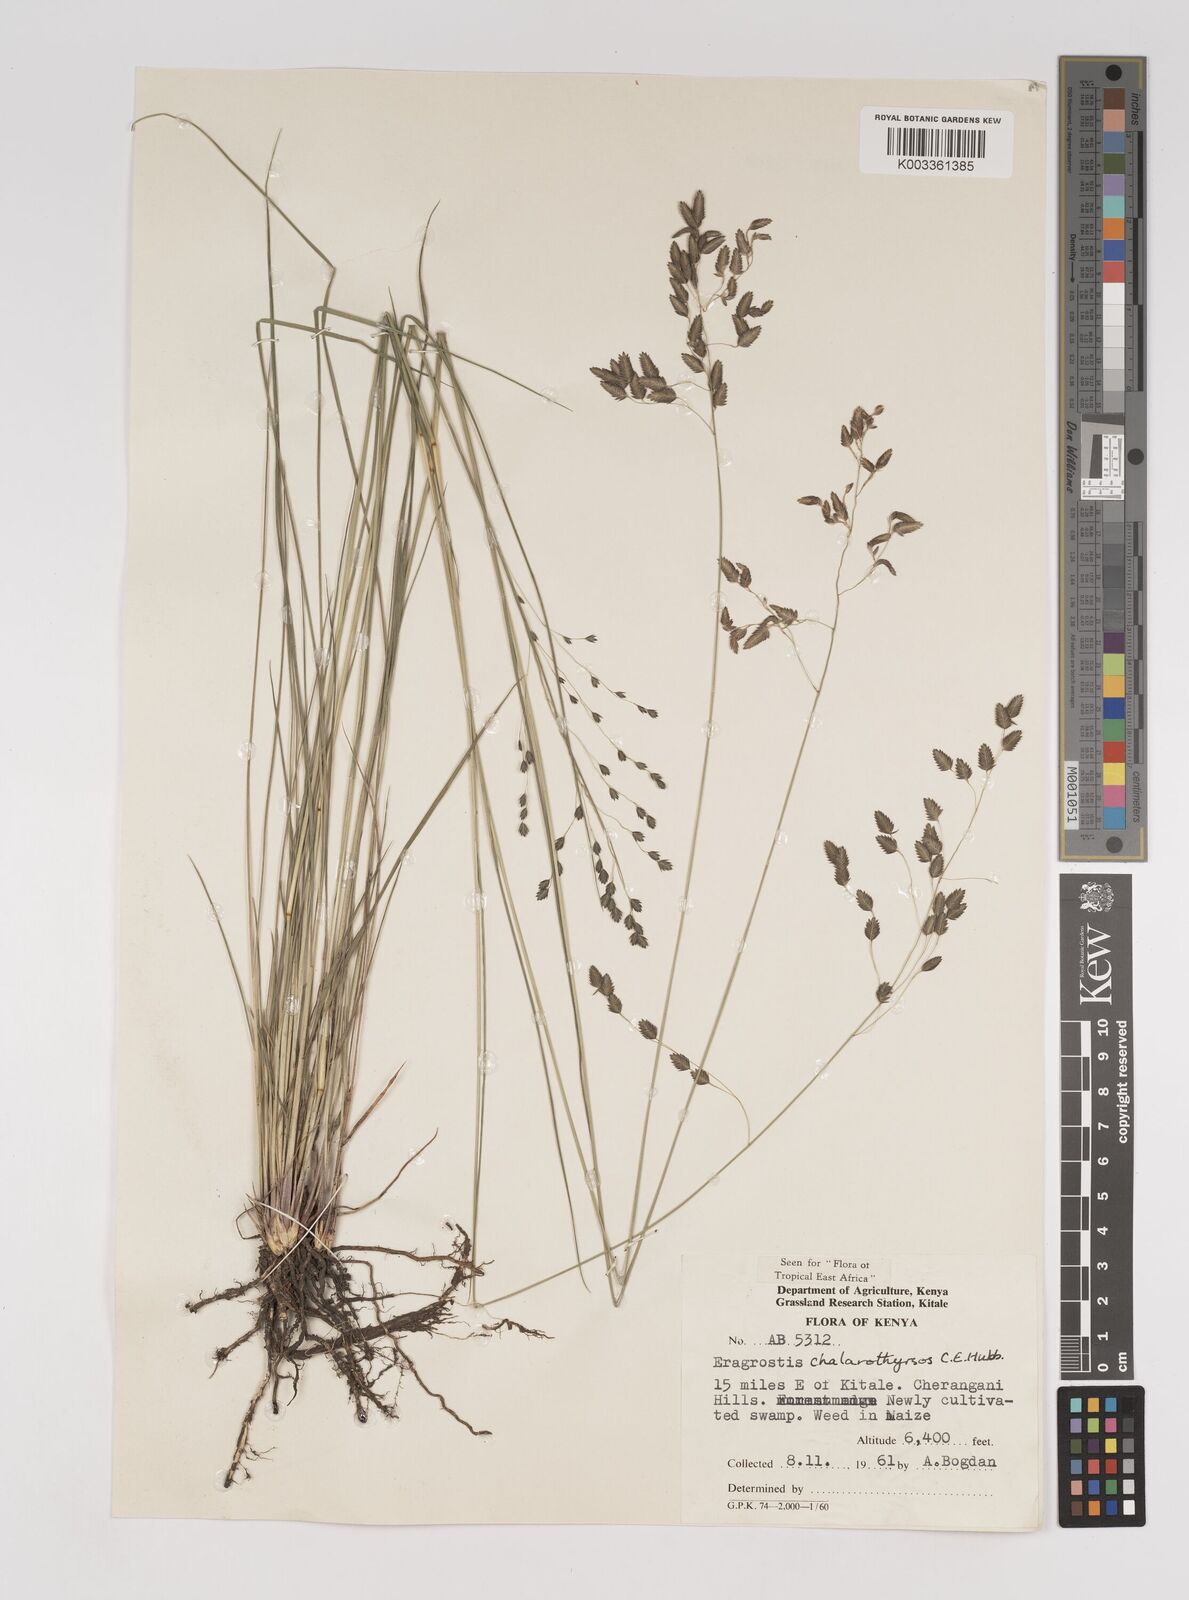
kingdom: Plantae
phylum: Tracheophyta
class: Liliopsida
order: Poales
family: Poaceae
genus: Eragrostis
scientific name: Eragrostis chalarothyrsos
